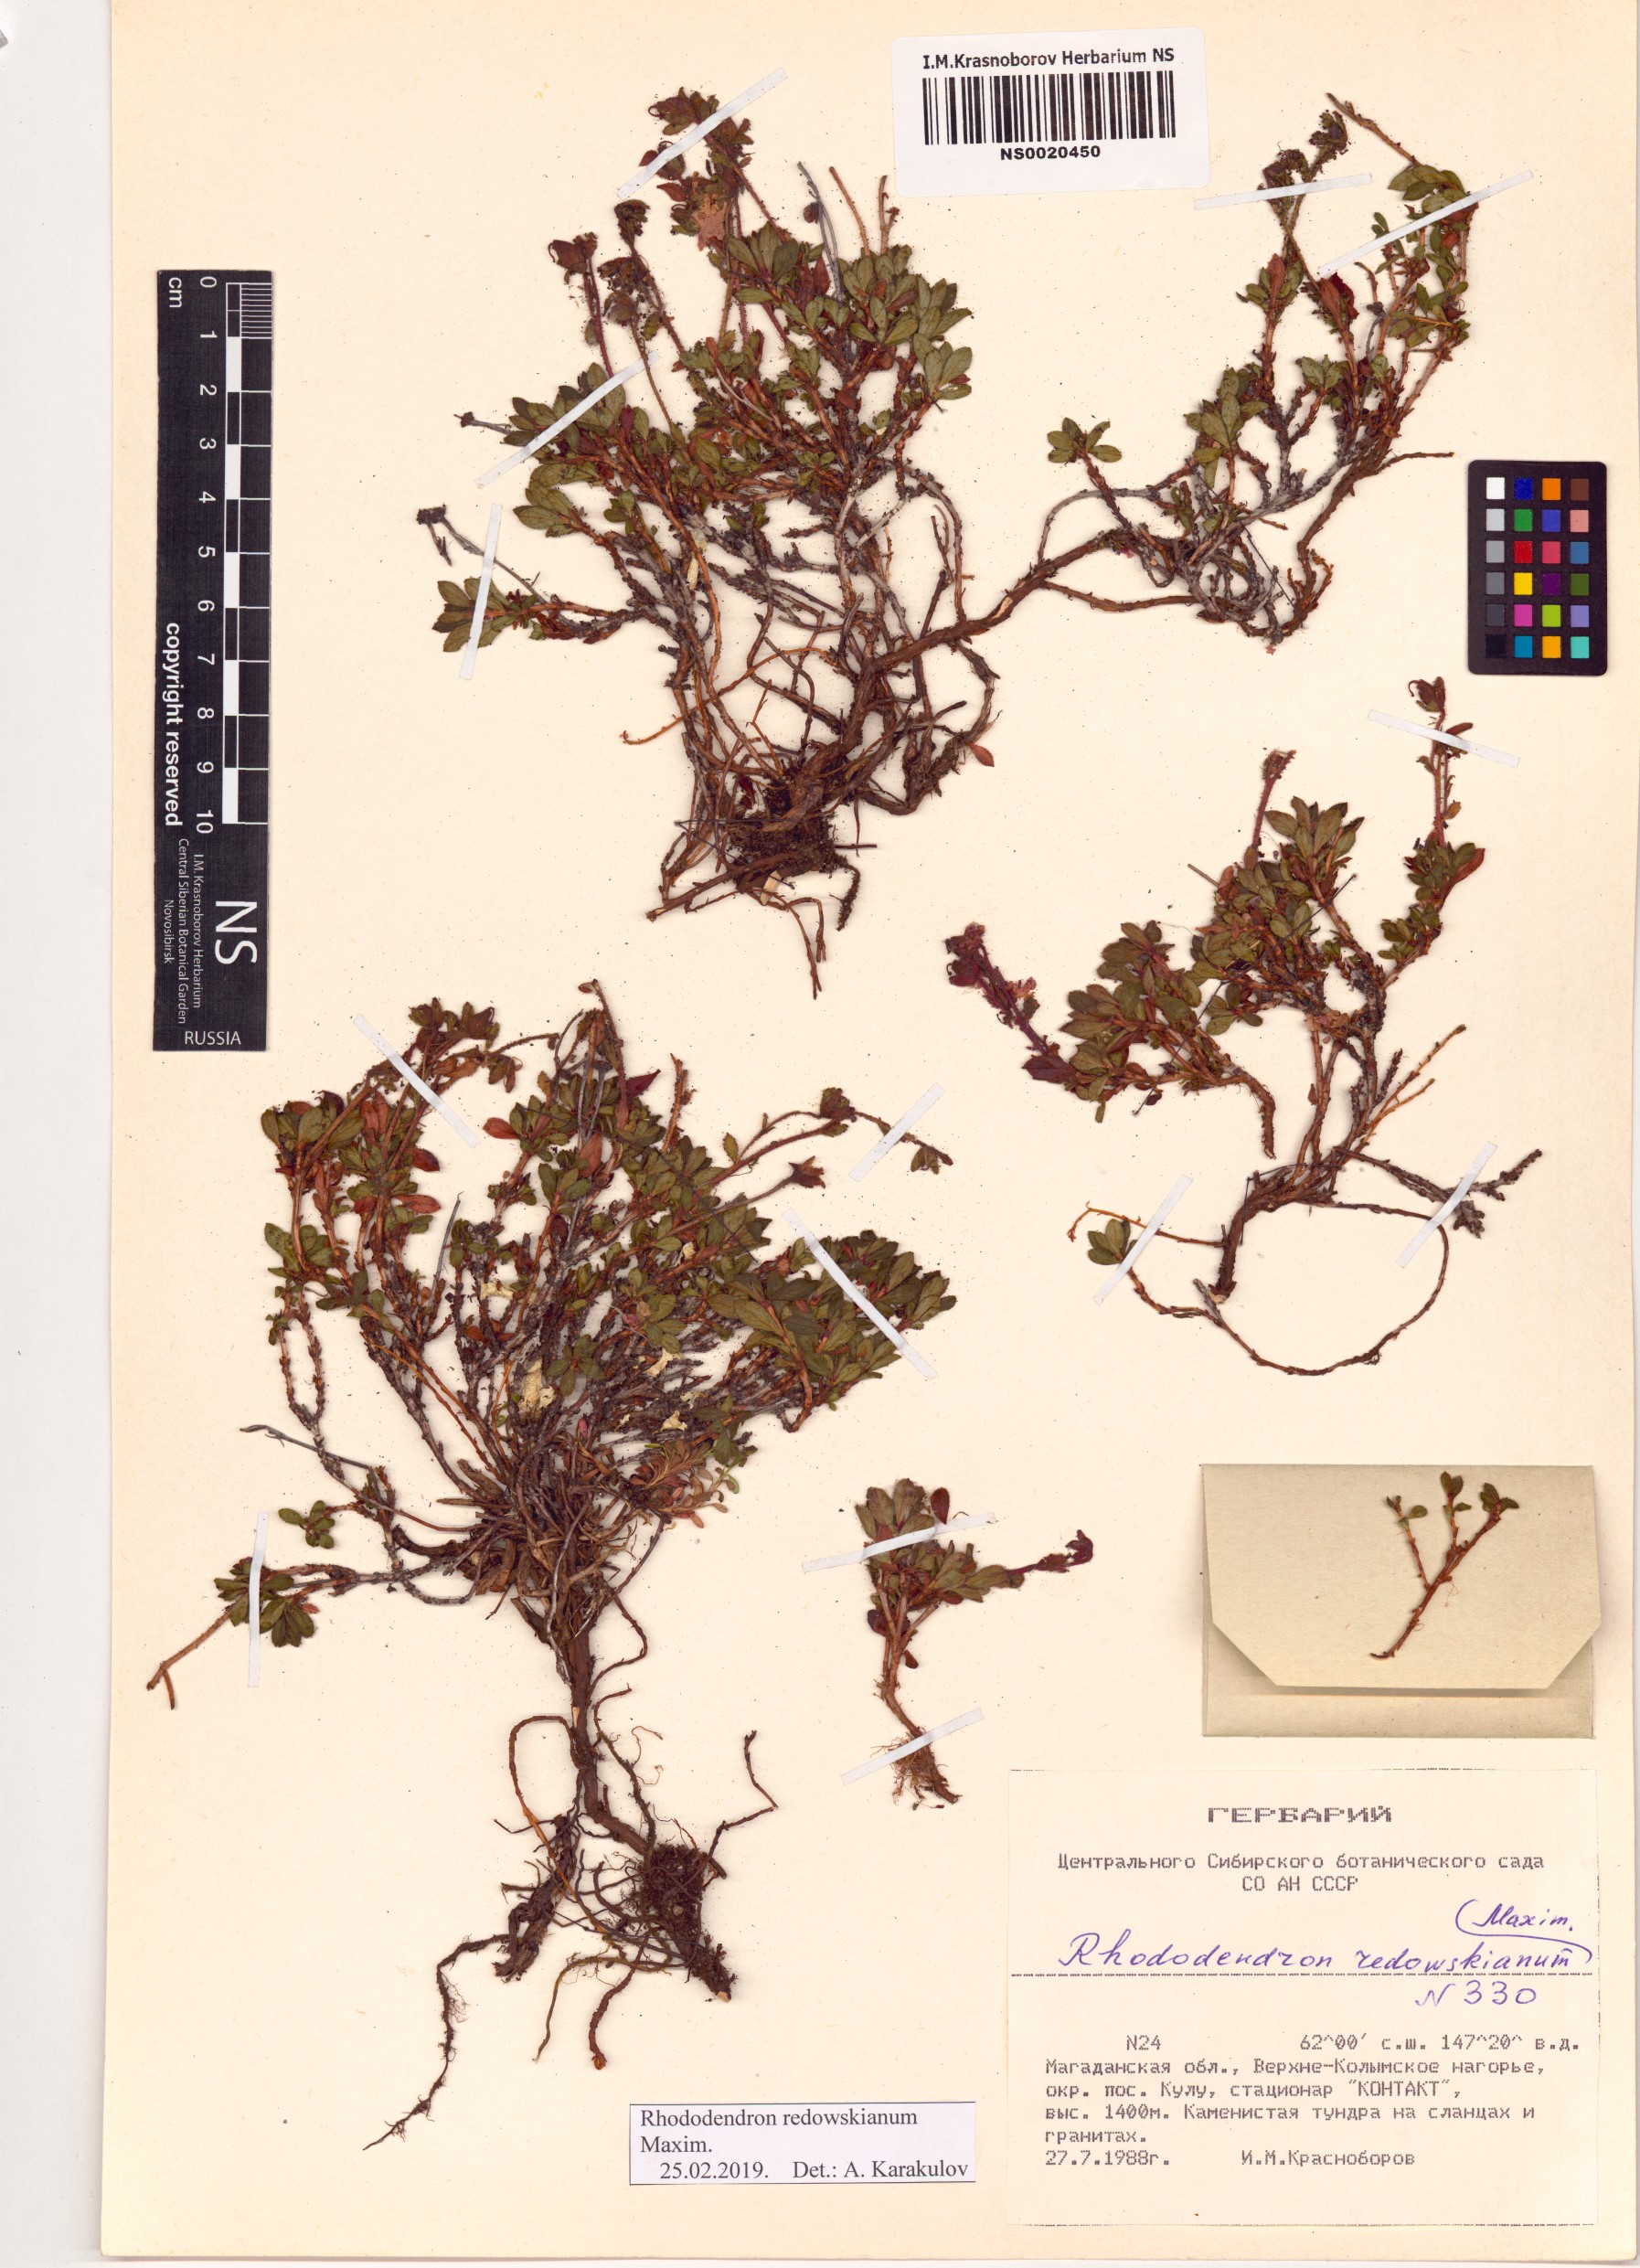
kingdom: Plantae
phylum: Tracheophyta
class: Magnoliopsida
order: Ericales
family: Ericaceae
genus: Rhododendron
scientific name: Rhododendron redowskianum
